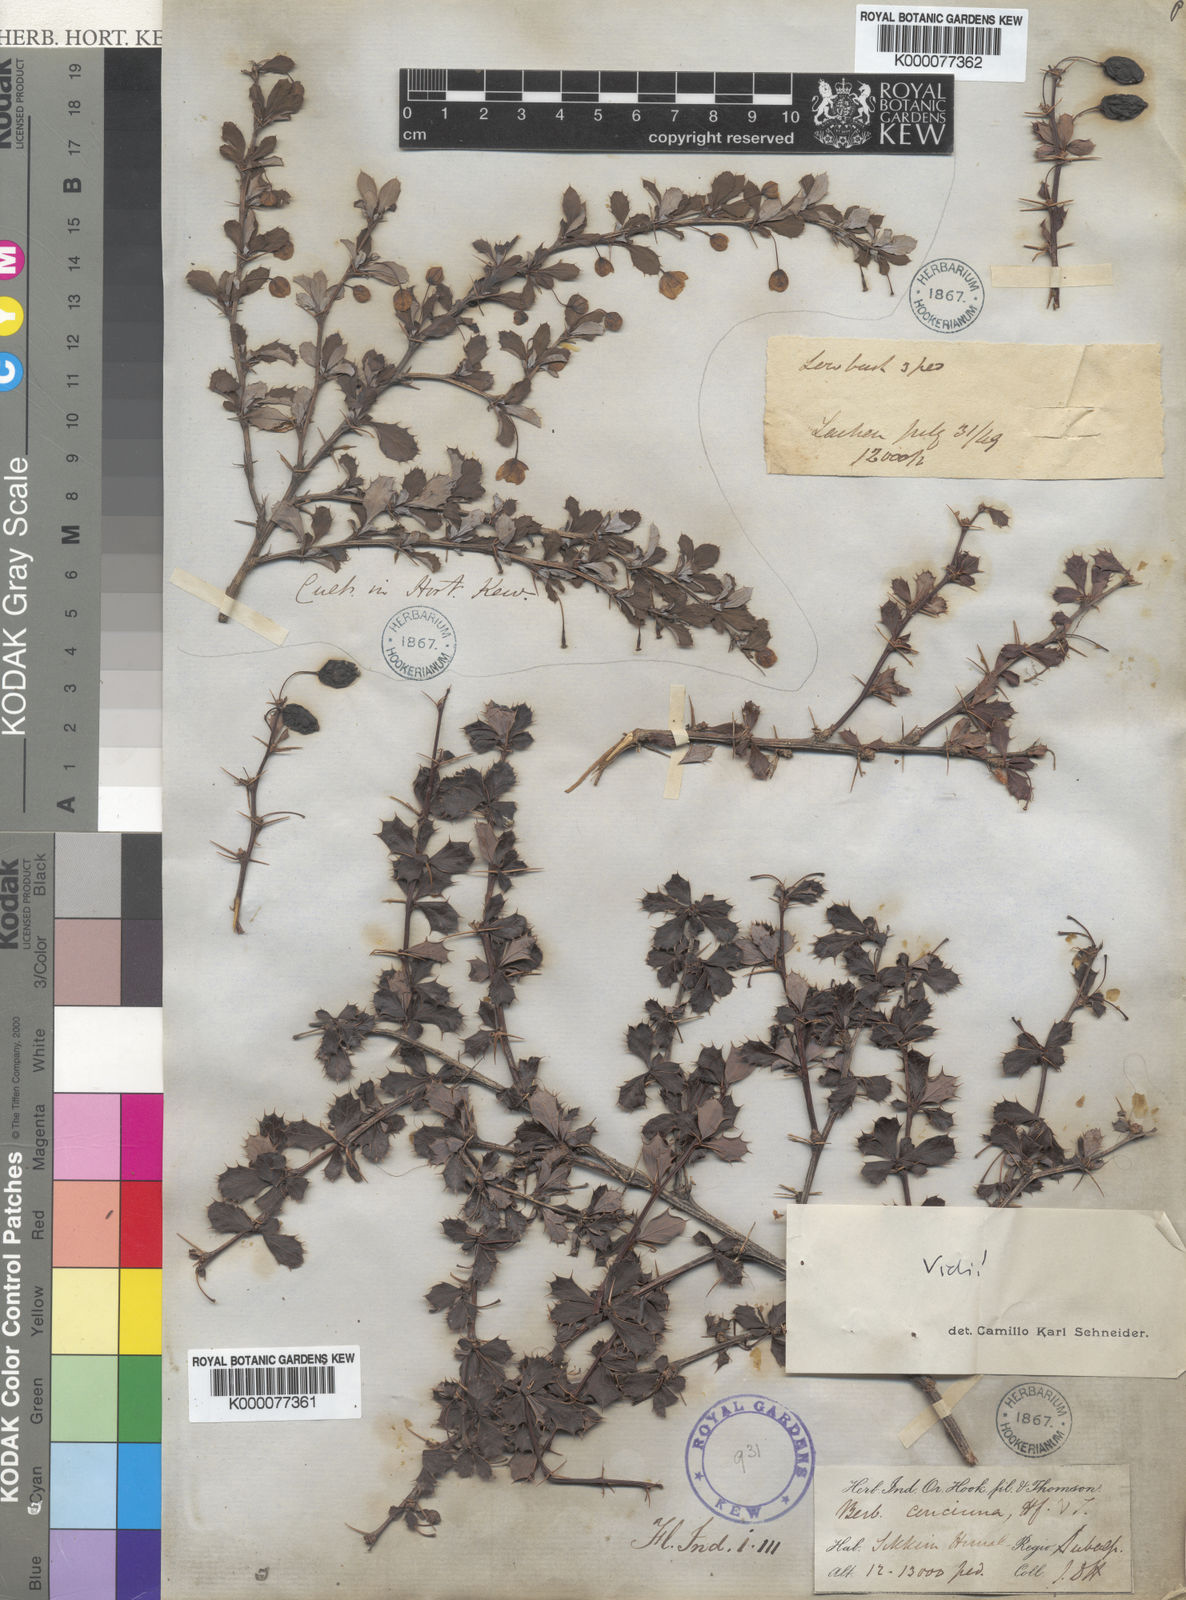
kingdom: Plantae
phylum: Tracheophyta
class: Magnoliopsida
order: Ranunculales
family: Berberidaceae
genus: Berberis
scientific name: Berberis concinna
